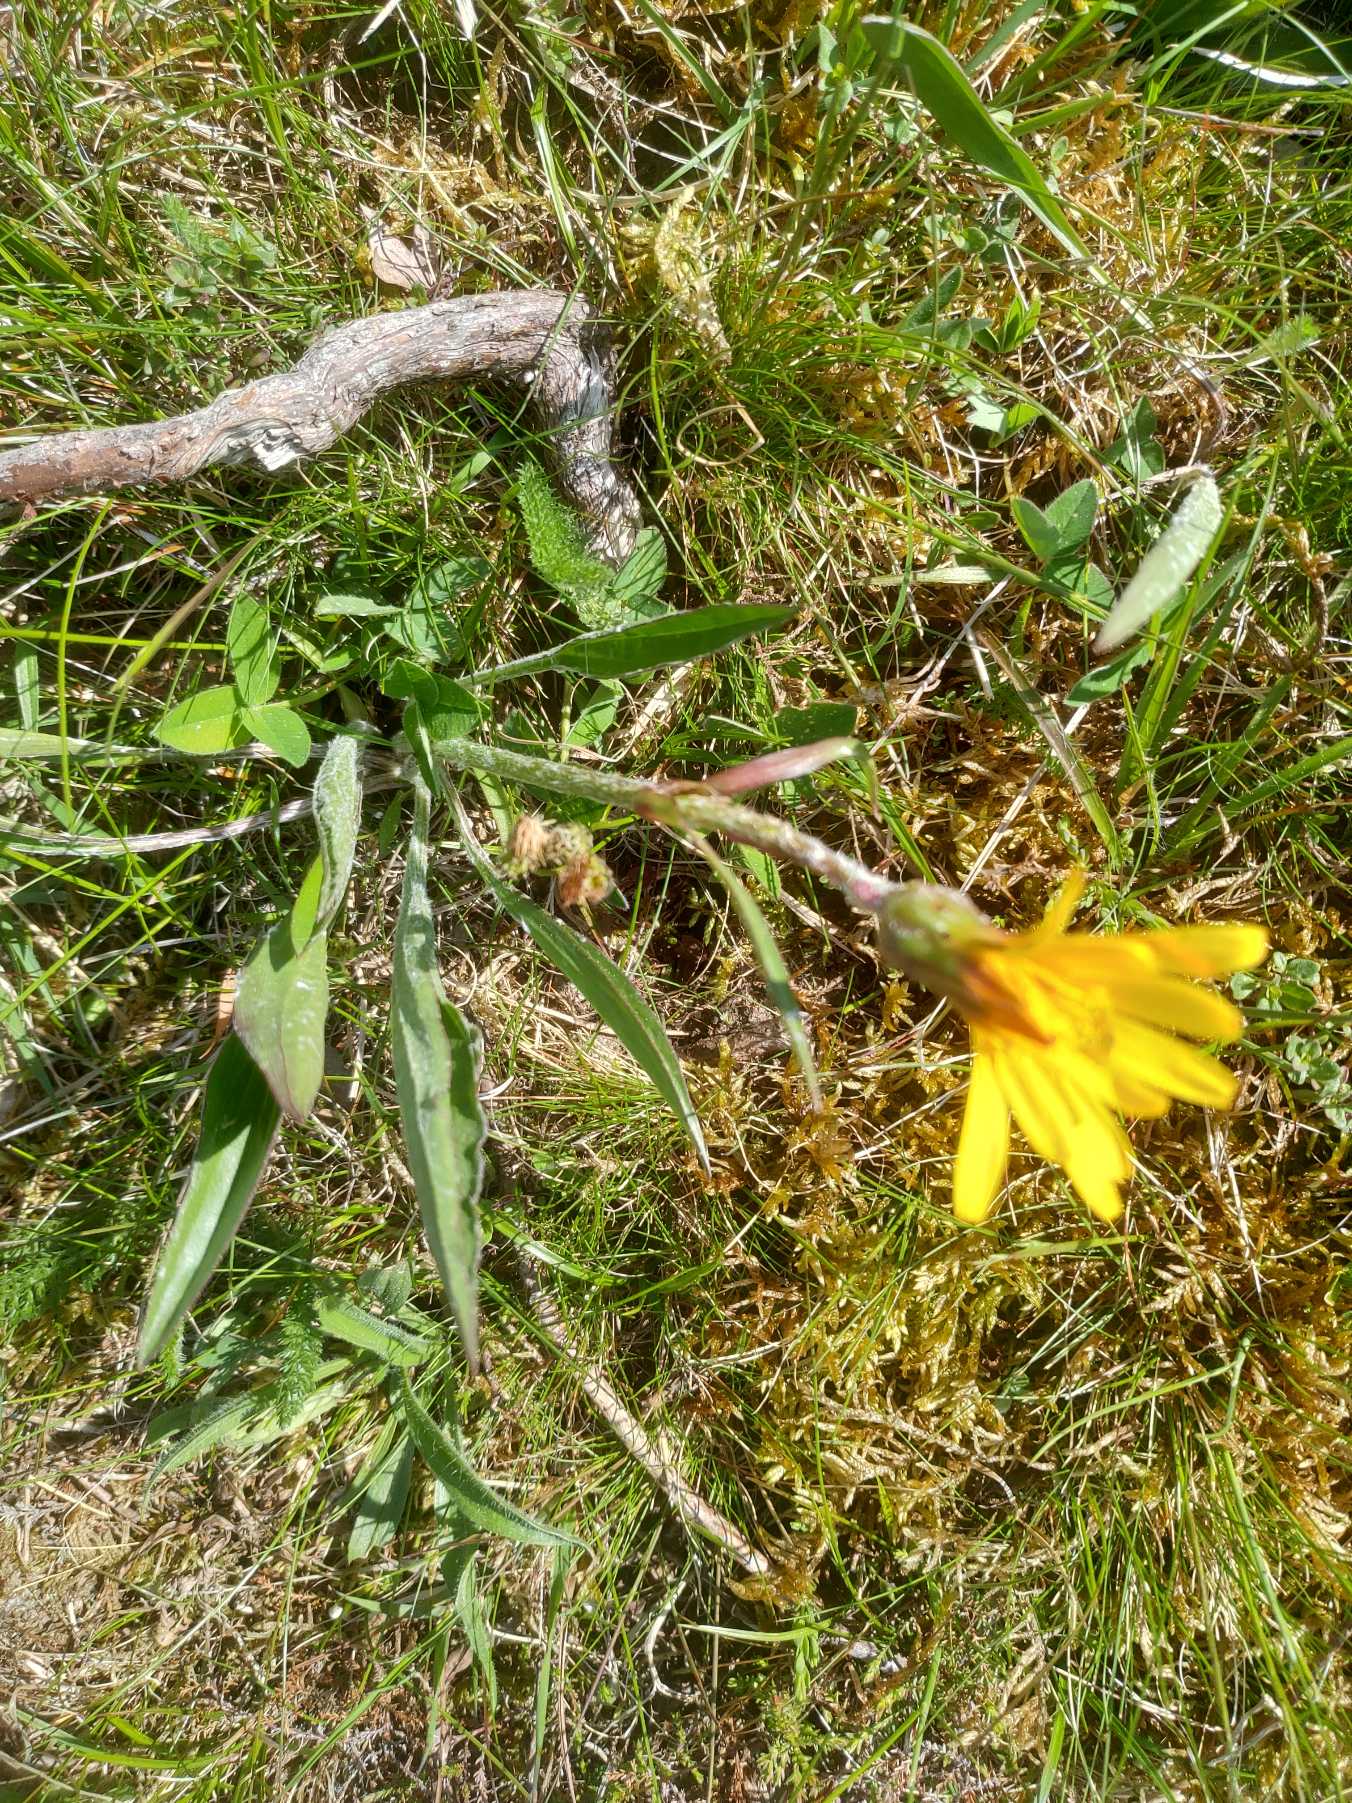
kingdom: Plantae
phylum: Tracheophyta
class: Magnoliopsida
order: Asterales
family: Asteraceae
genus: Scorzonera
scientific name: Scorzonera humilis
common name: Lav skorsoner
